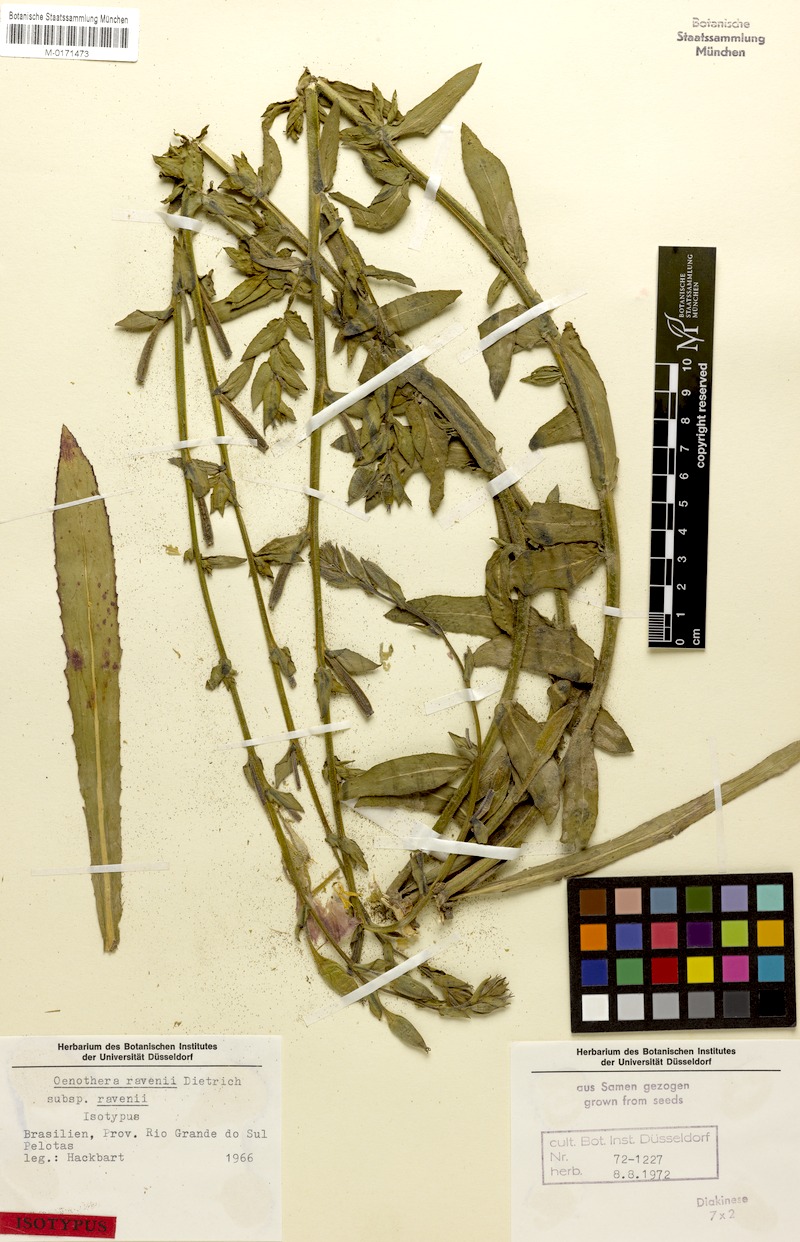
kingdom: Plantae
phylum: Tracheophyta
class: Magnoliopsida
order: Myrtales
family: Onagraceae
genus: Oenothera
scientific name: Oenothera ravenii
